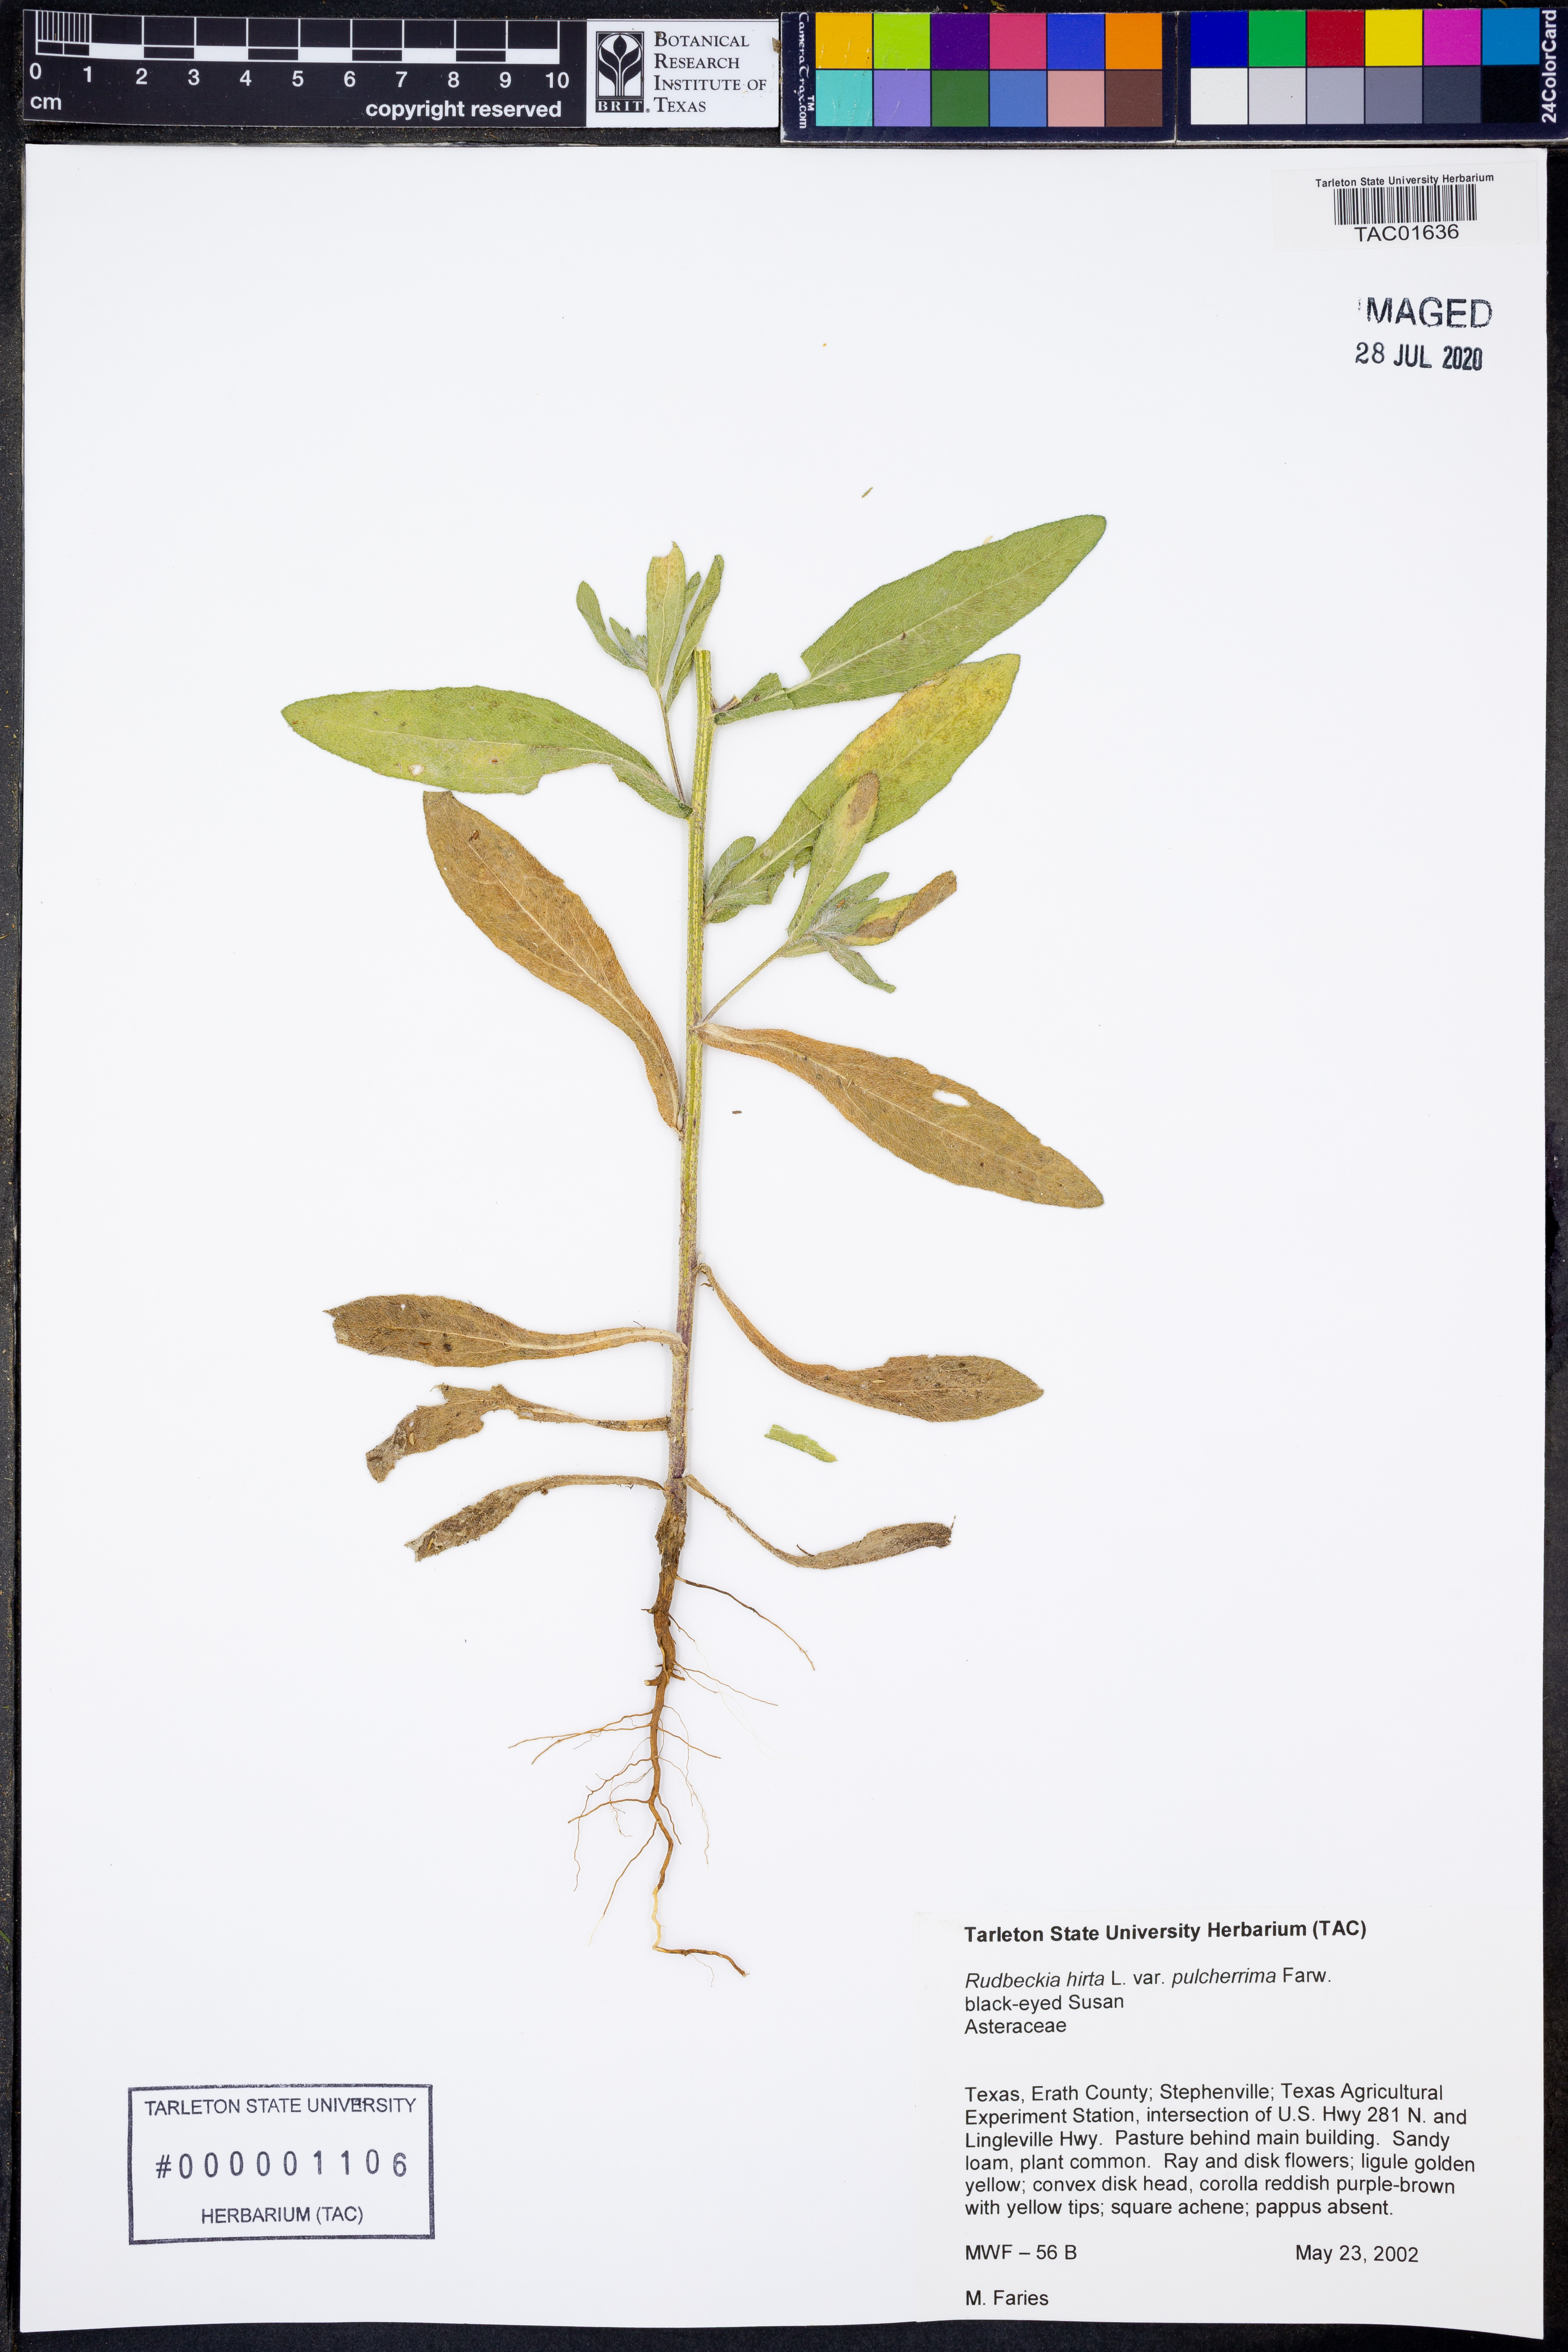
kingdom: Plantae
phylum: Tracheophyta
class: Magnoliopsida
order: Asterales
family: Asteraceae
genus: Rudbeckia
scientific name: Rudbeckia hirta
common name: Black-eyed-susan
